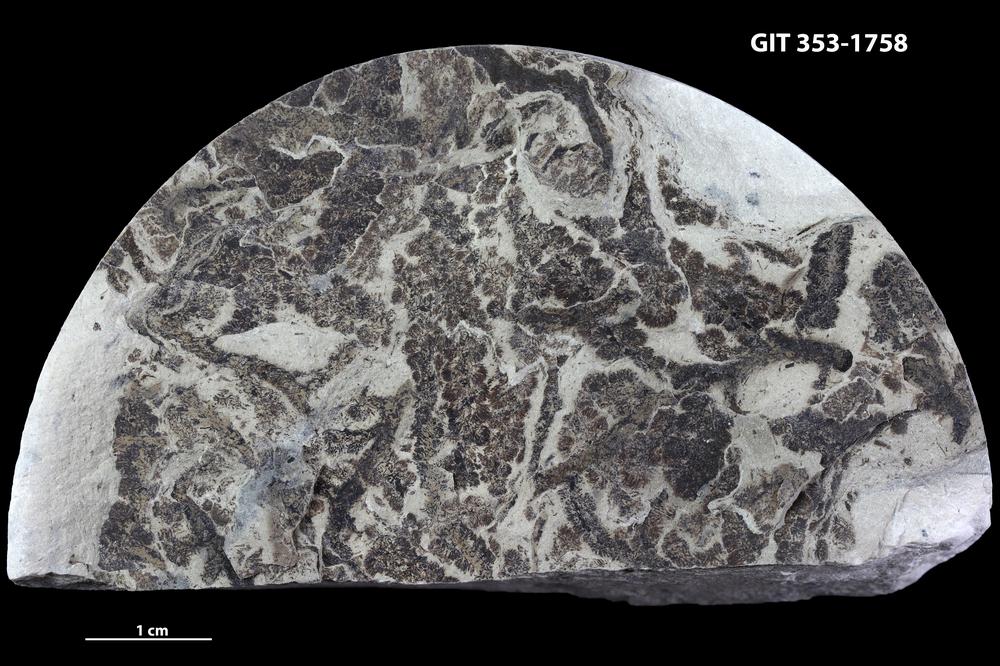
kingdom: Plantae
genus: Leveilleites
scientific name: Leveilleites hartnageli
